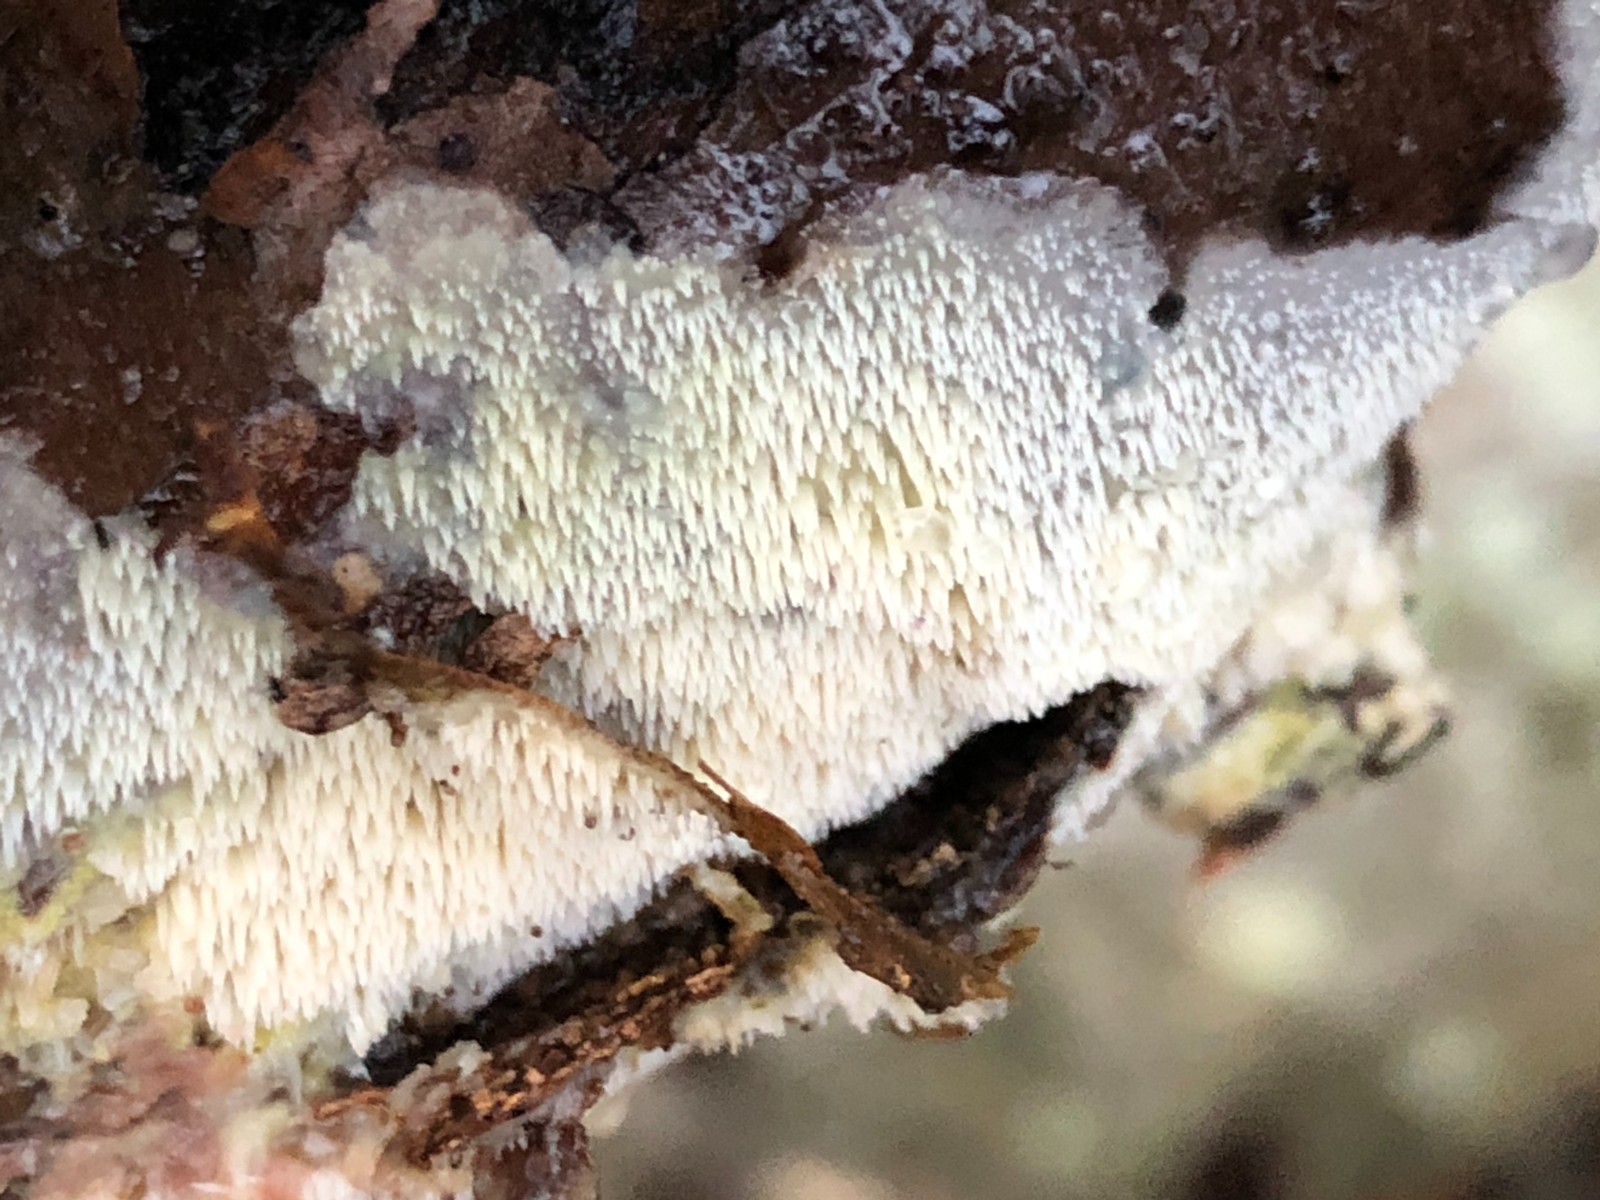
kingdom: Fungi
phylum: Basidiomycota
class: Agaricomycetes
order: Polyporales
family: Meruliaceae
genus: Mycoacia
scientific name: Mycoacia
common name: vokspig
